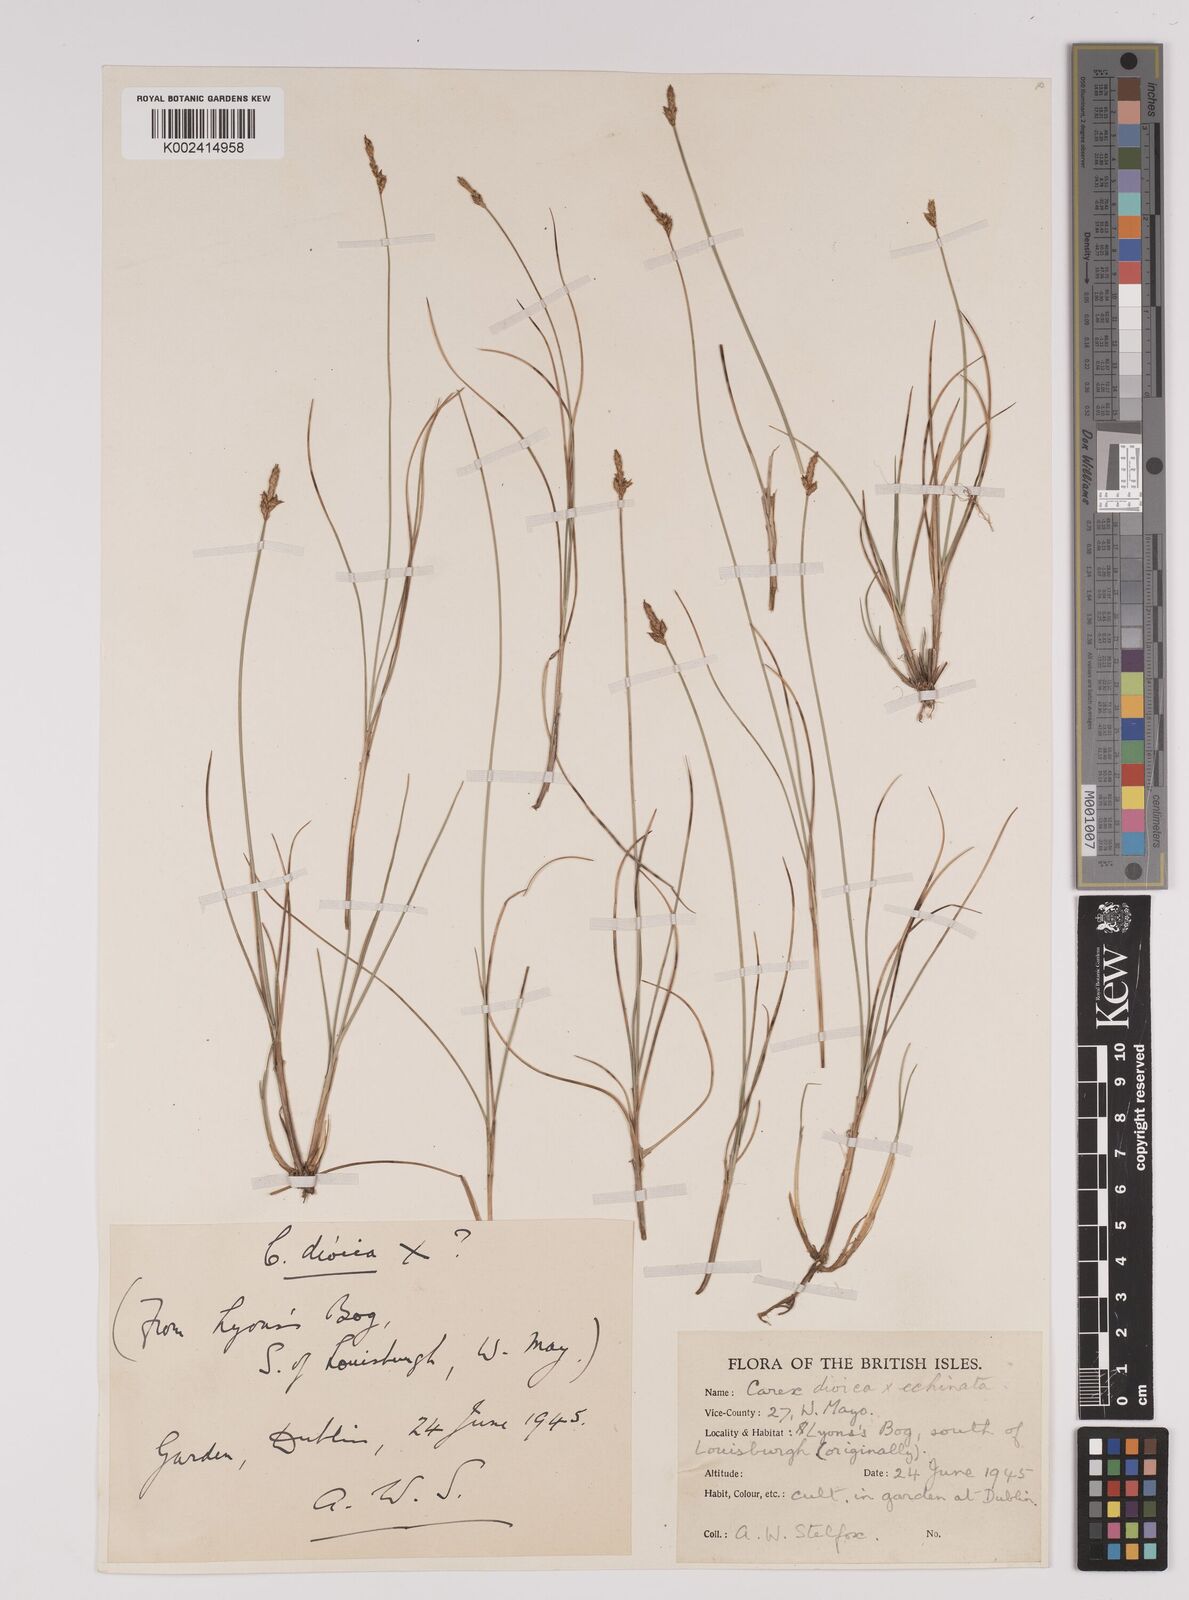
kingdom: Plantae
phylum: Tracheophyta
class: Liliopsida
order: Poales
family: Cyperaceae
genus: Carex
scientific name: Carex dioica
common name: Dioecious sedge
